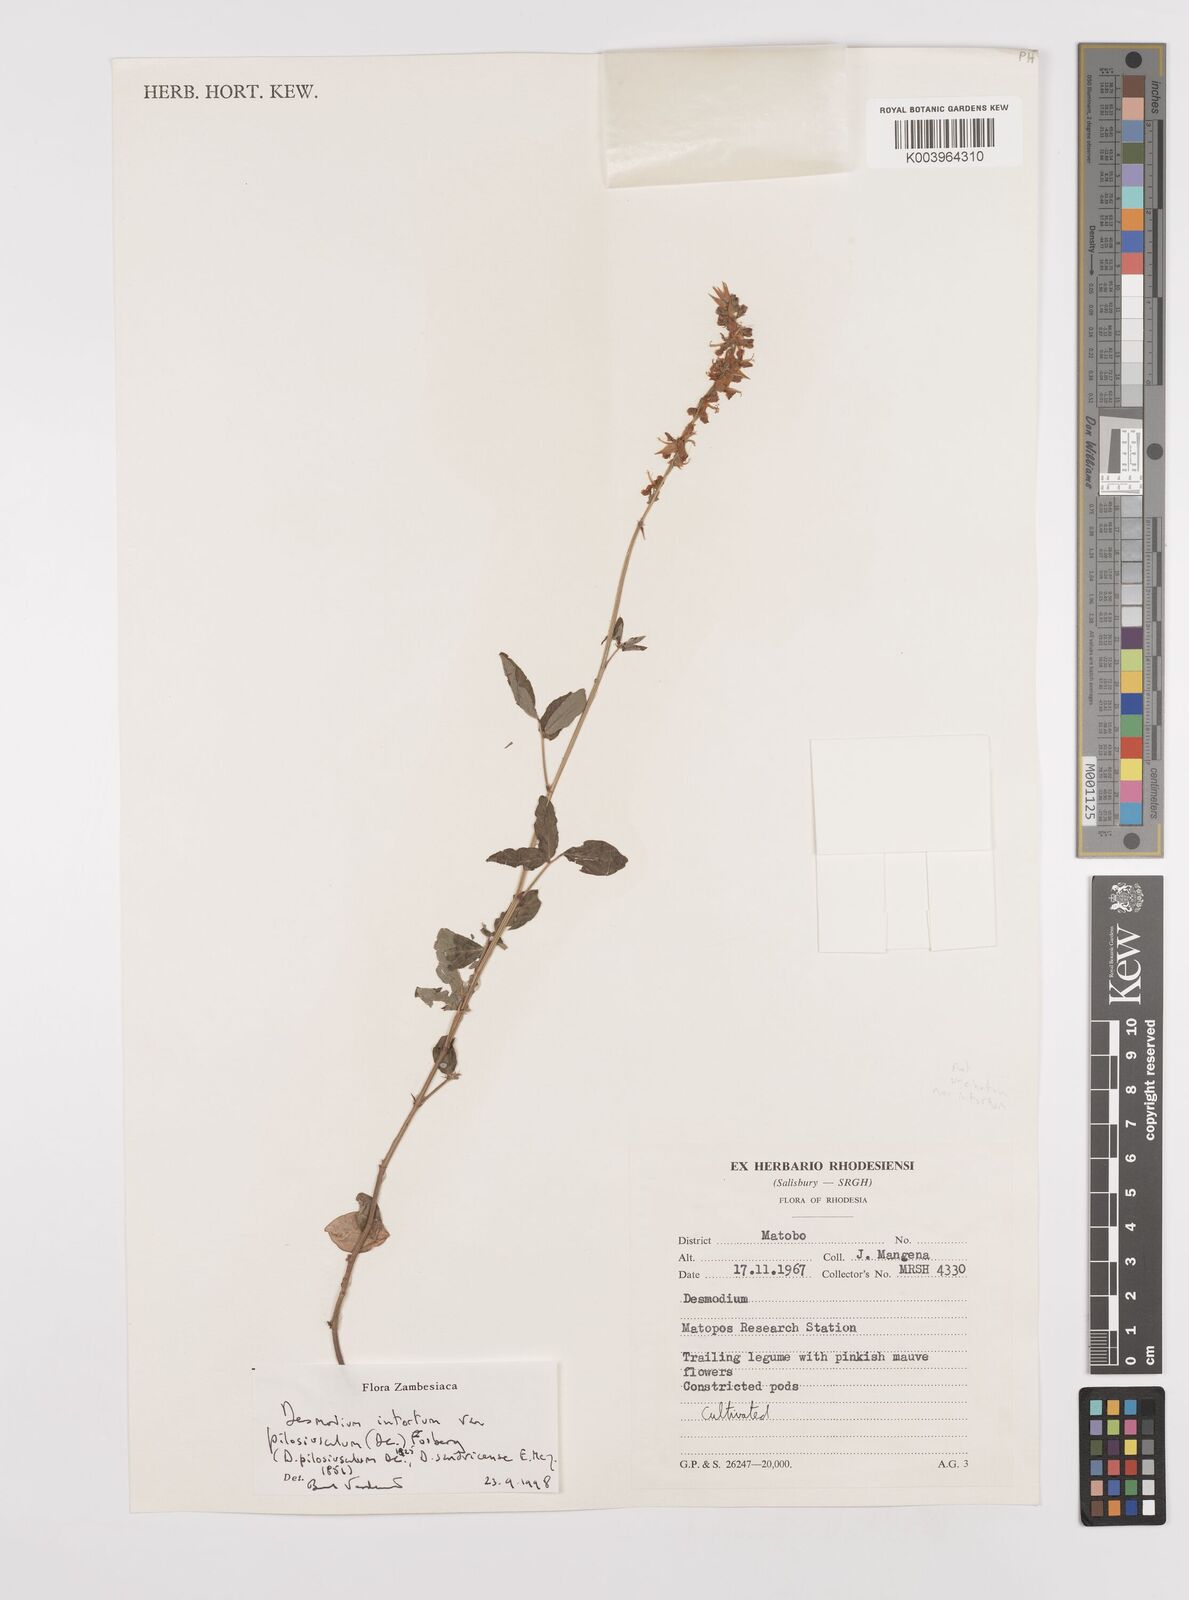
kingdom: Plantae
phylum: Tracheophyta
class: Magnoliopsida
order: Fabales
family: Fabaceae
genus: Desmodium
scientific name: Desmodium intortum
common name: Greenleaf ticktrefoil
